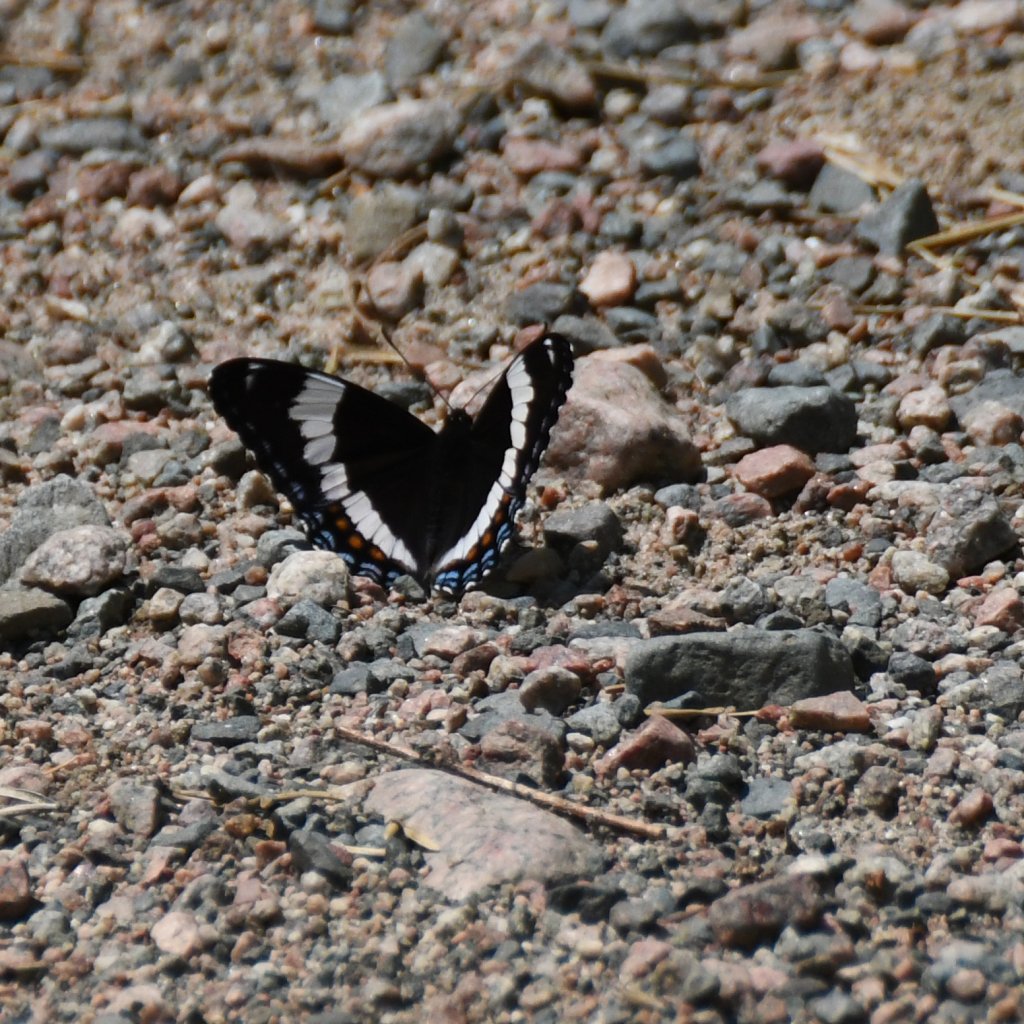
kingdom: Animalia
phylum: Arthropoda
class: Insecta
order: Lepidoptera
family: Nymphalidae
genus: Limenitis
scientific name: Limenitis arthemis
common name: Red-spotted Admiral
